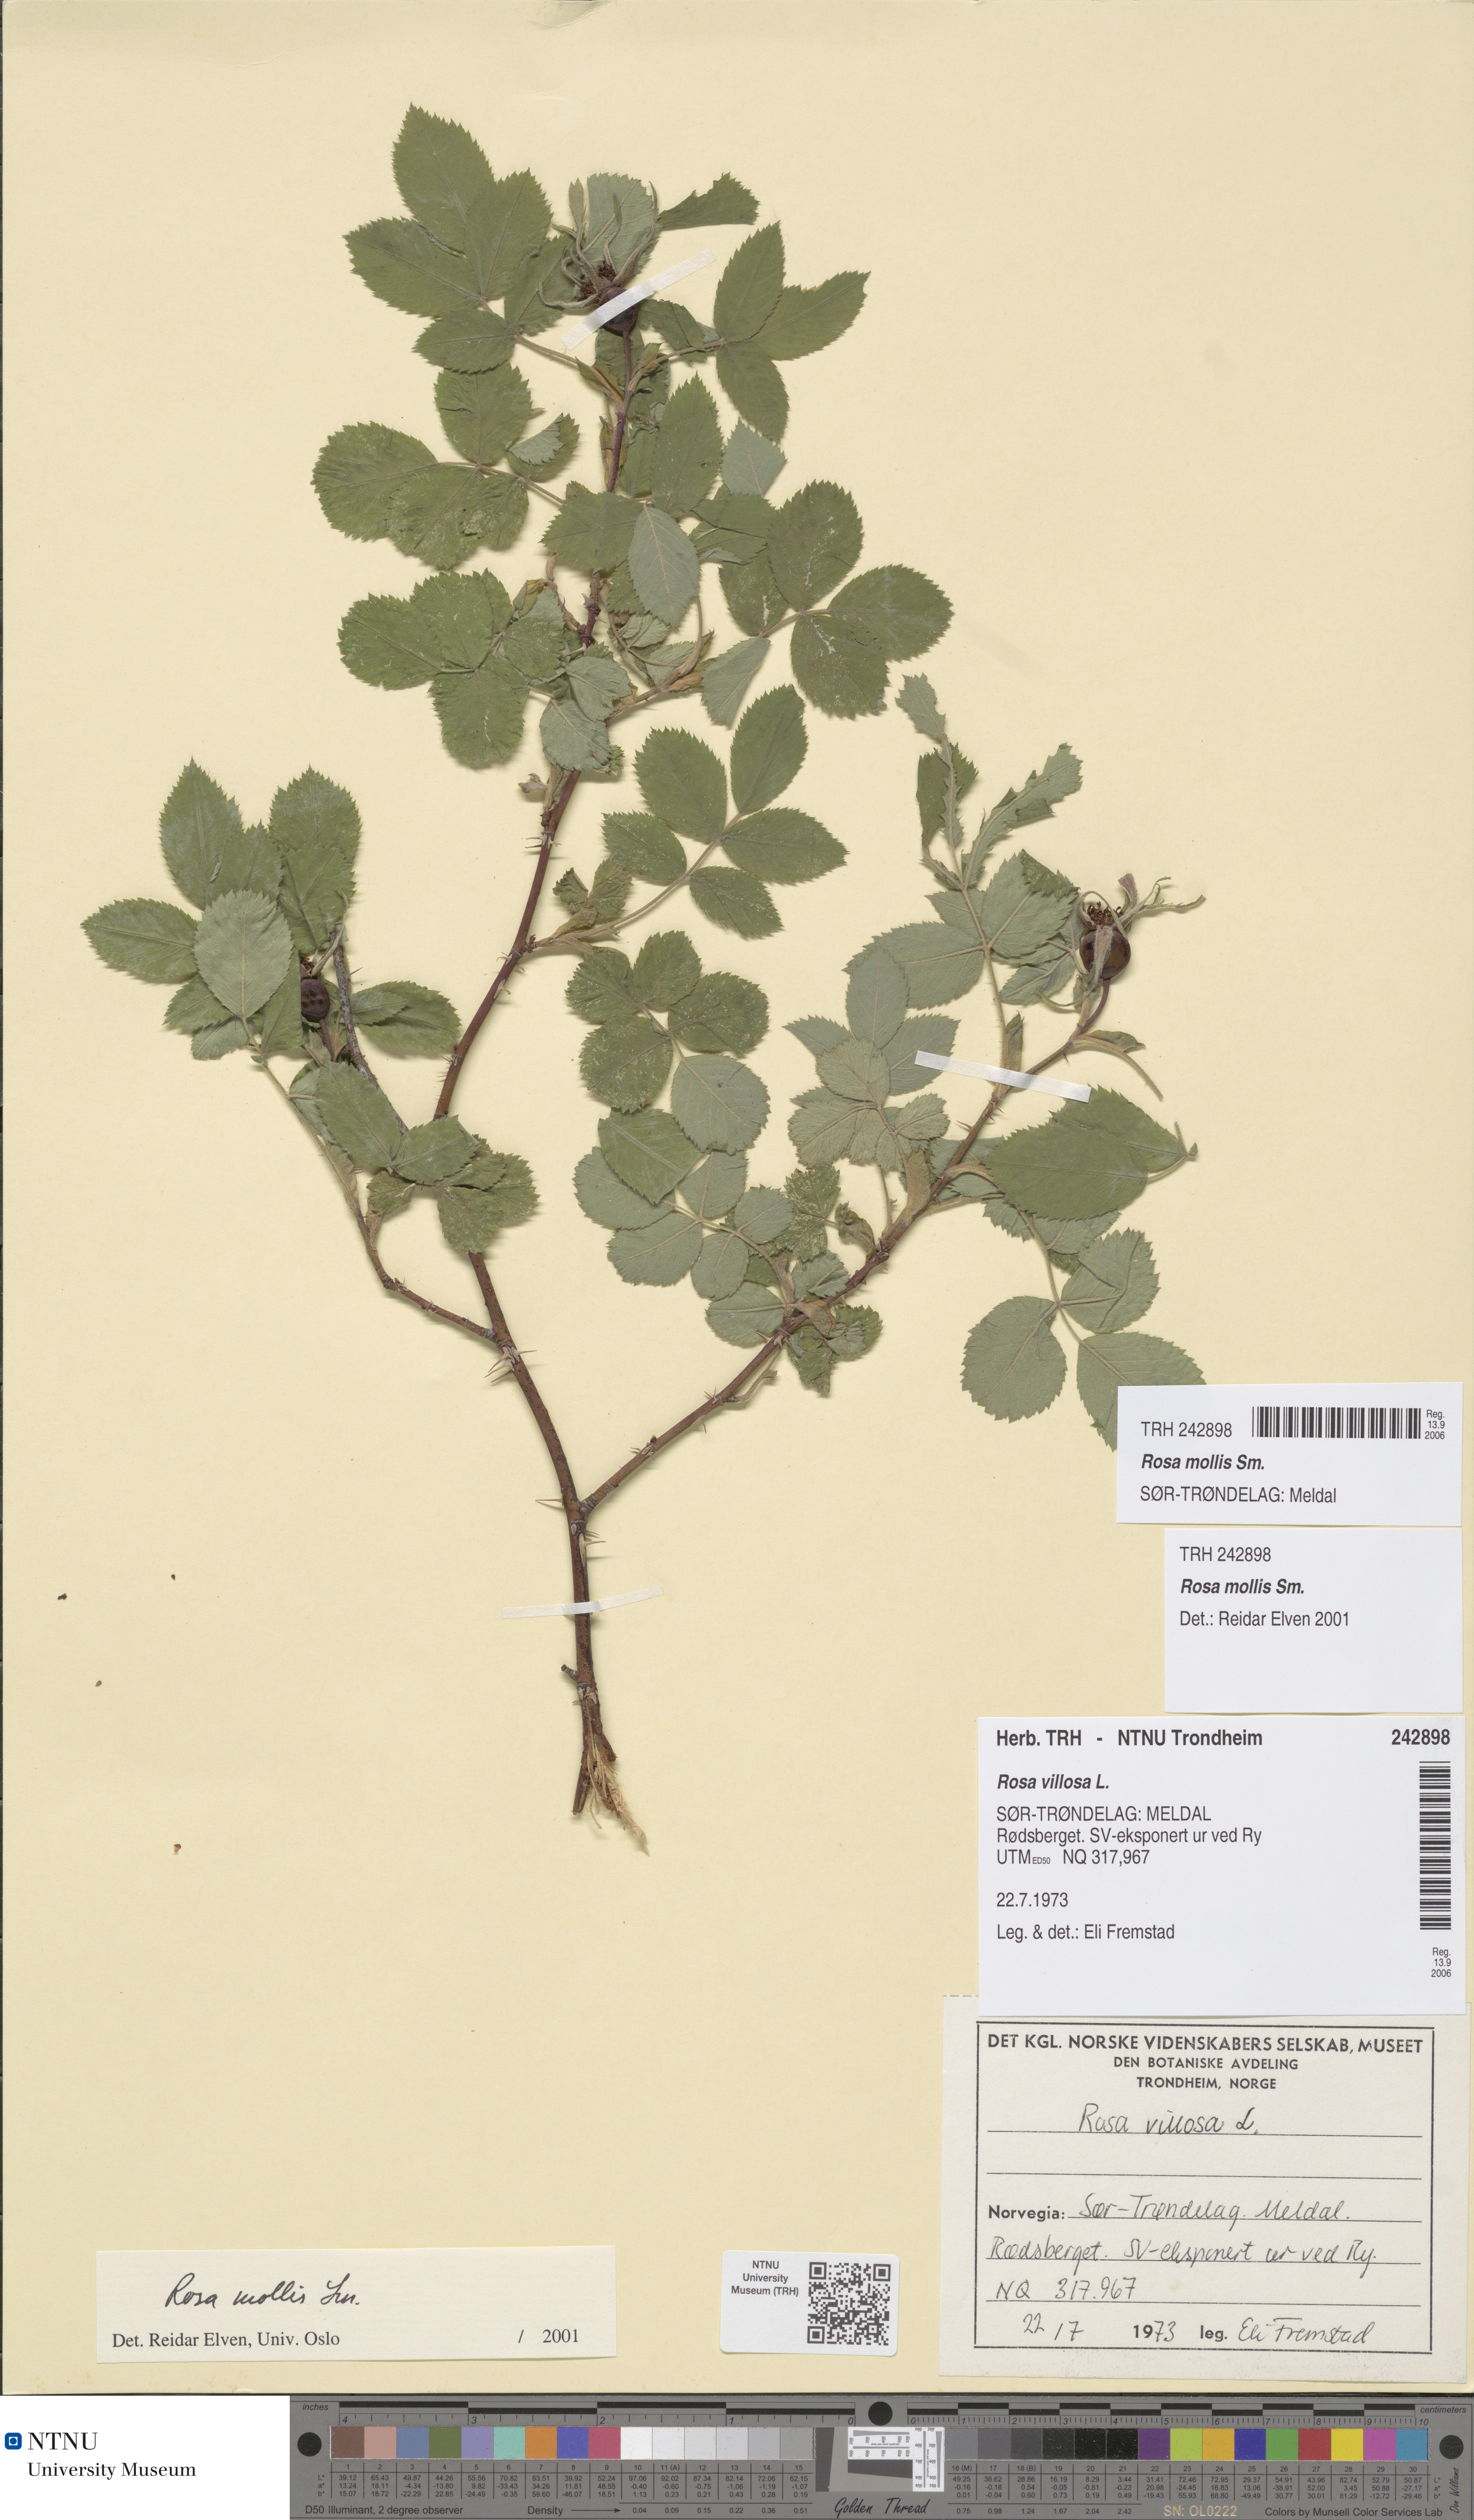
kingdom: Plantae
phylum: Tracheophyta
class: Magnoliopsida
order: Rosales
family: Rosaceae
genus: Rosa
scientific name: Rosa mollis
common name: Rose
